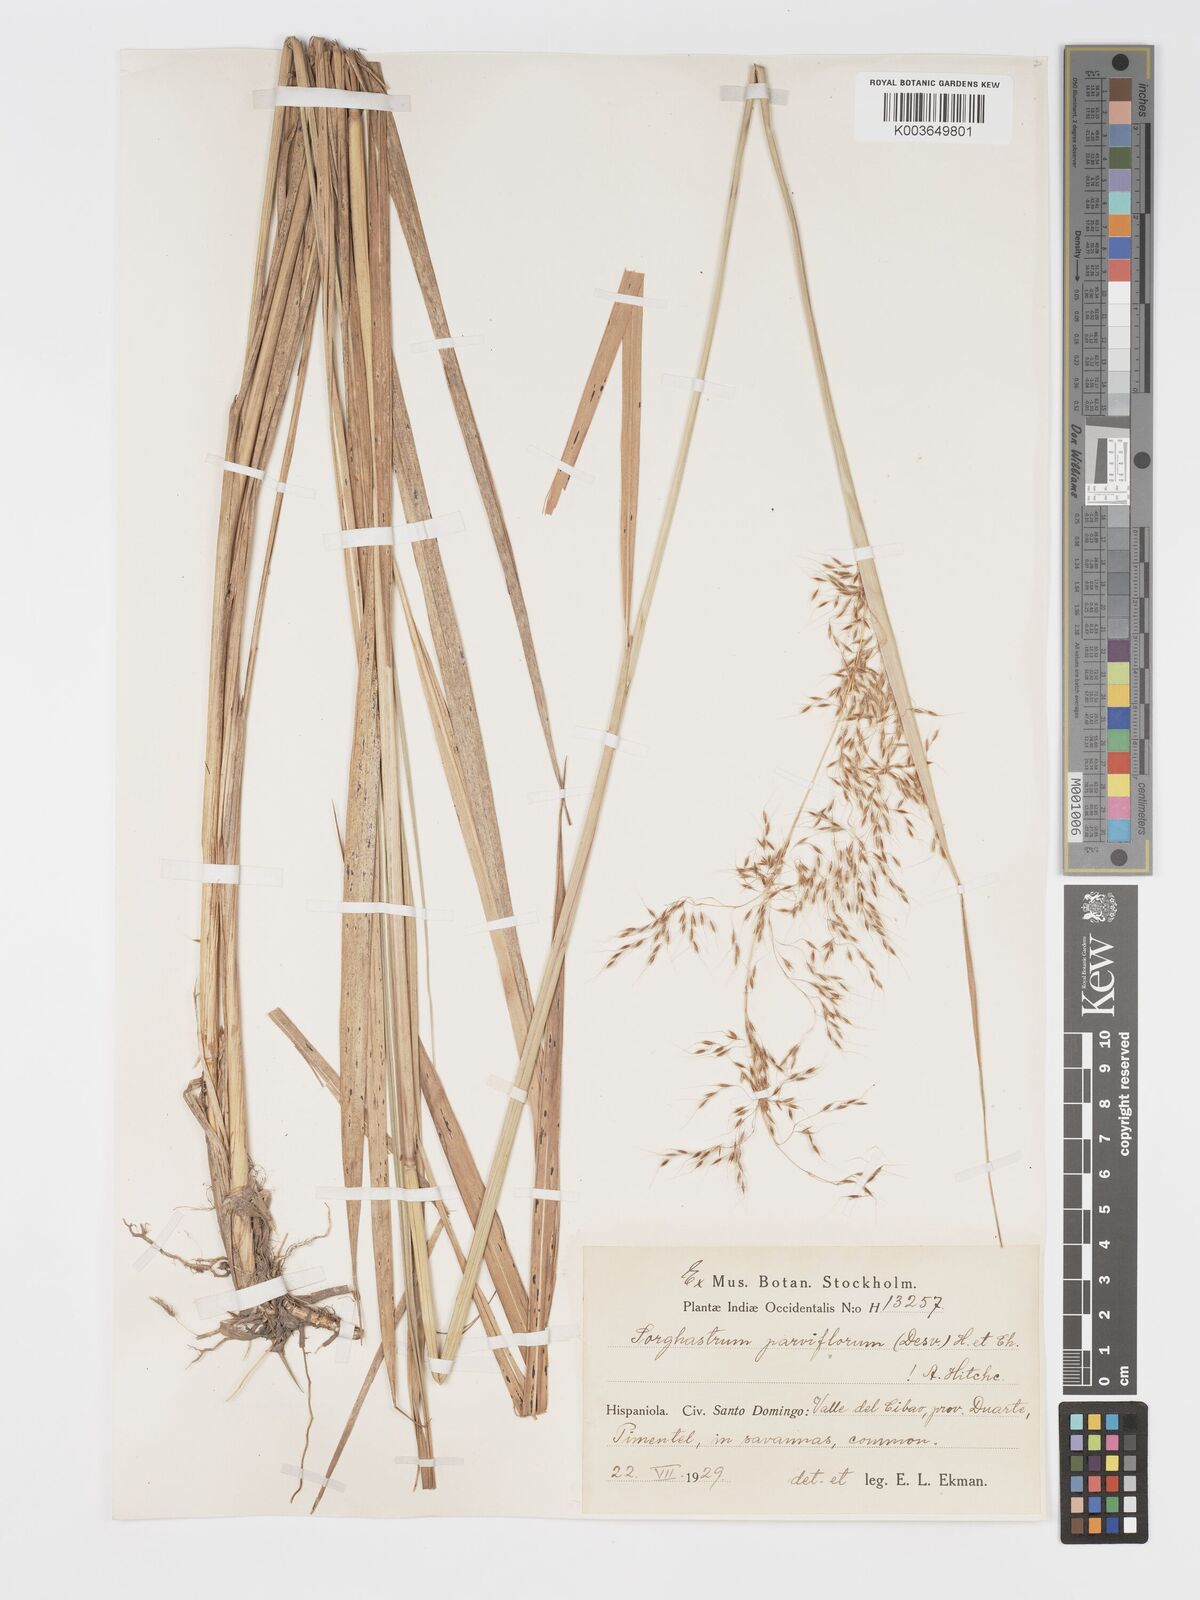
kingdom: Plantae
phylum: Tracheophyta
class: Liliopsida
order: Poales
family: Poaceae
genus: Sorghastrum
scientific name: Sorghastrum setosum
